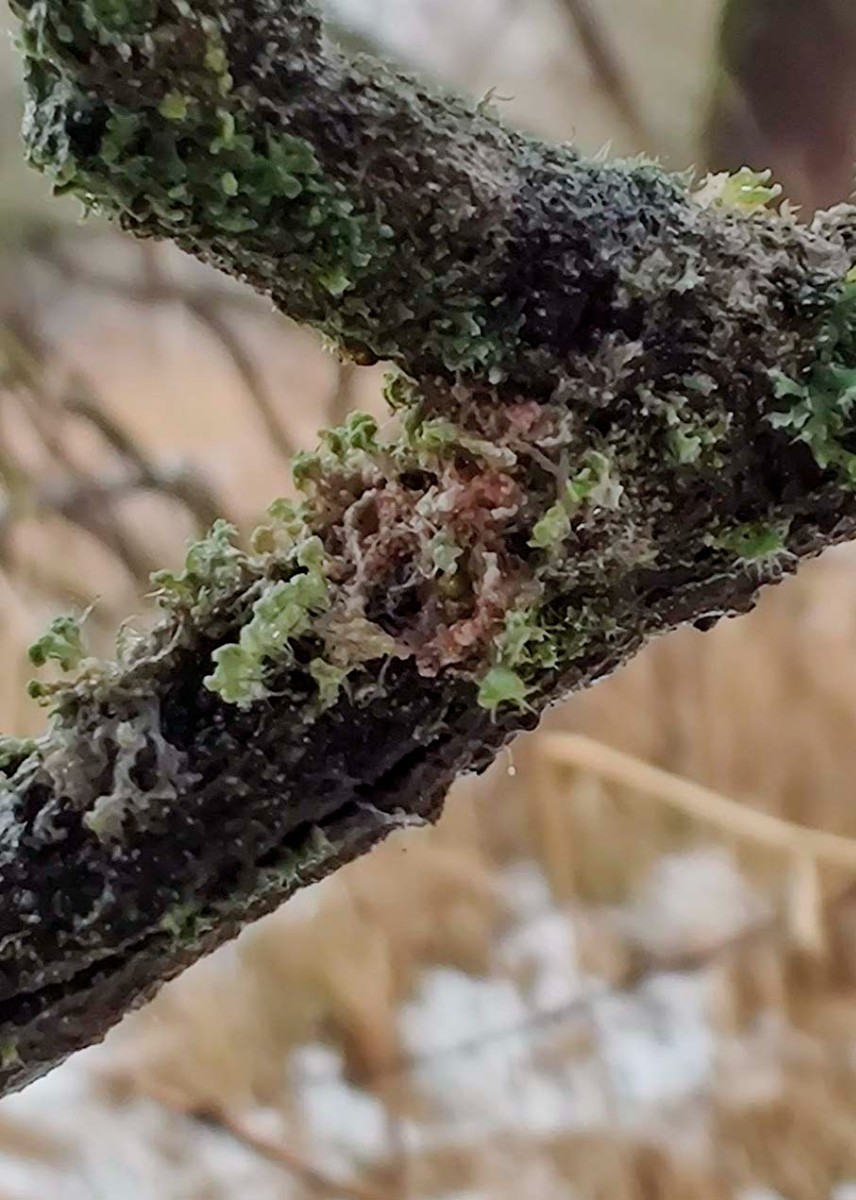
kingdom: Fungi
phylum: Basidiomycota
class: Agaricomycetes
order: Corticiales
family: Corticiaceae
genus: Erythricium
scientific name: Erythricium aurantiacum
